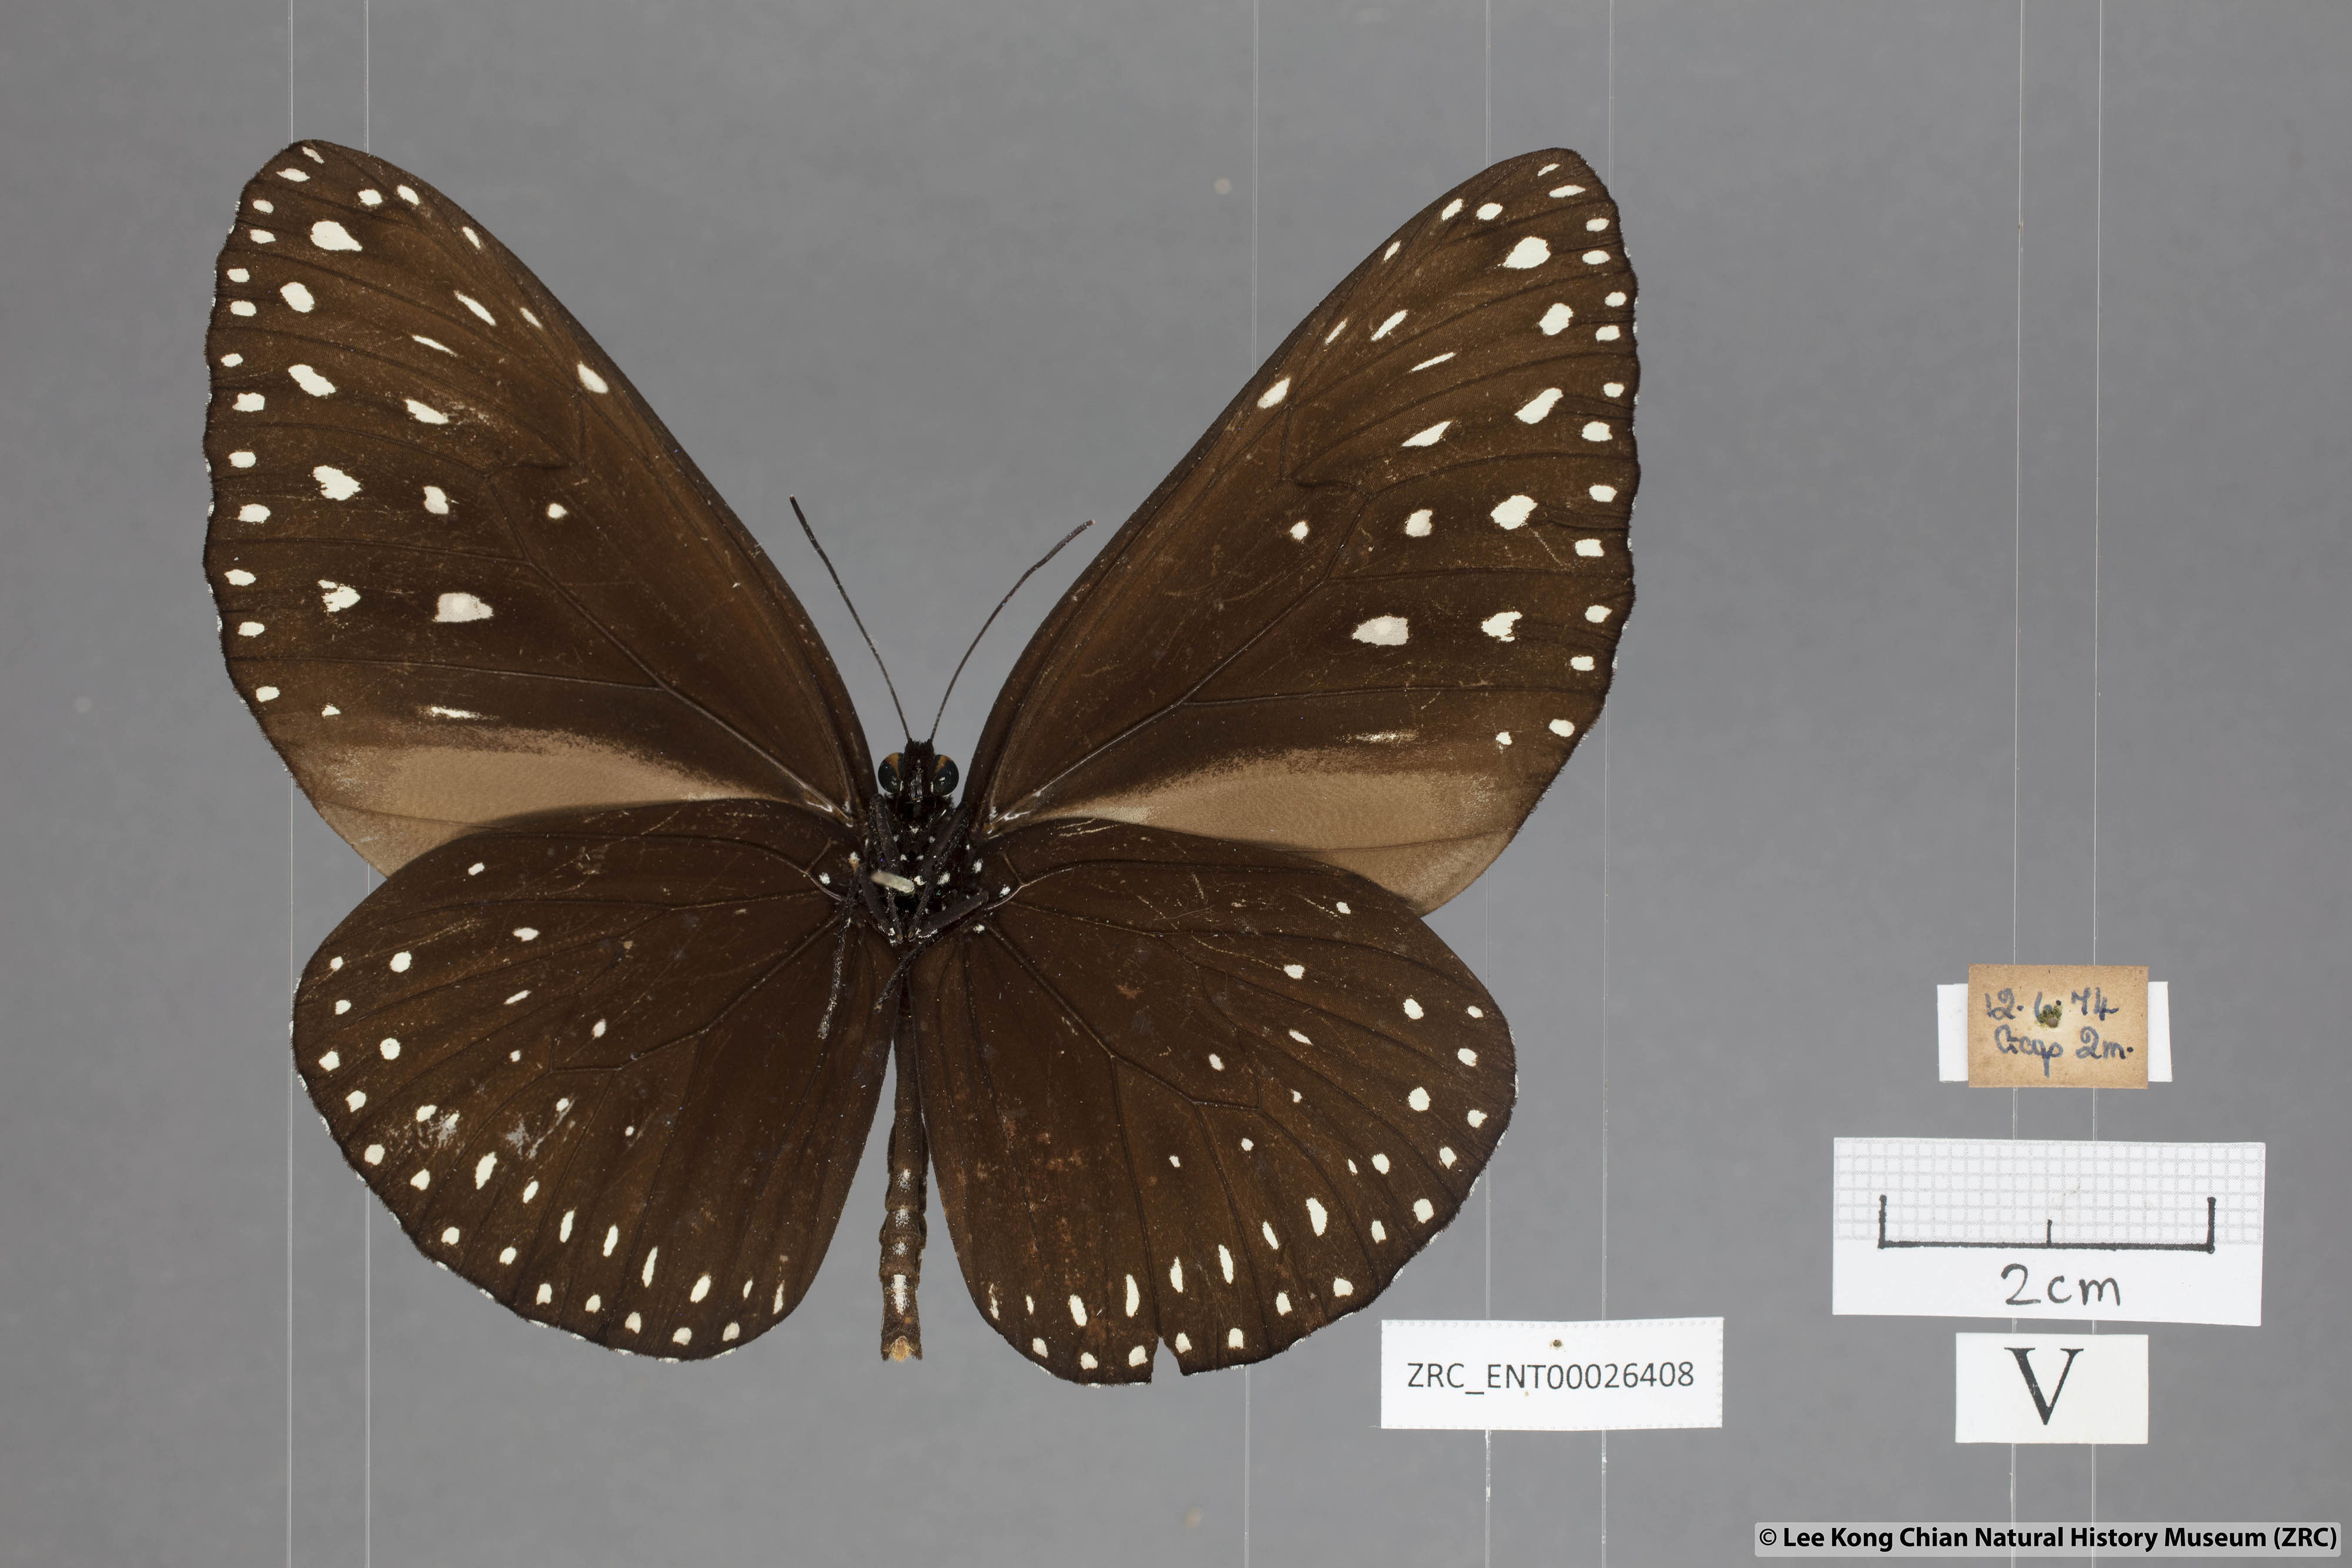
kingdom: Animalia
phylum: Arthropoda
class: Insecta
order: Lepidoptera
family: Nymphalidae
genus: Euploea
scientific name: Euploea camaralzeman
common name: Malayan crow butterfly
